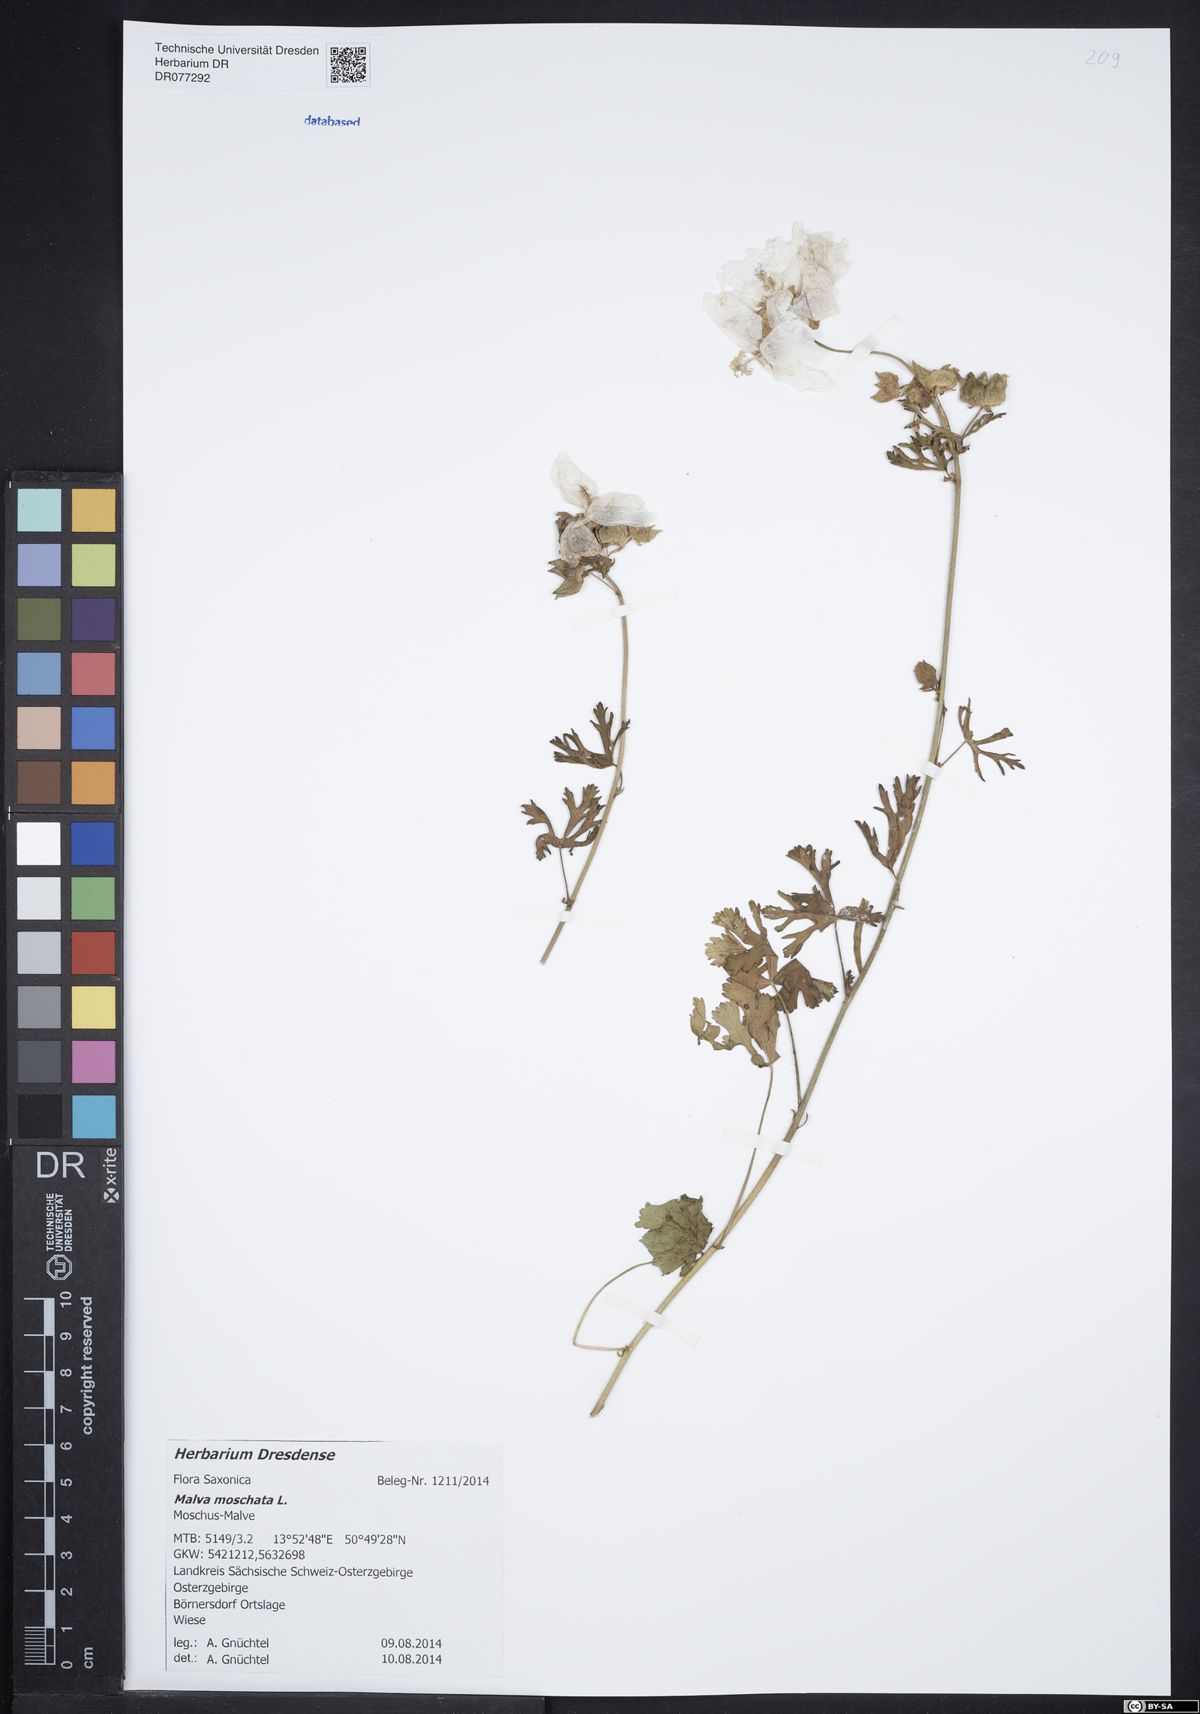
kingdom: Plantae
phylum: Tracheophyta
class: Magnoliopsida
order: Malvales
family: Malvaceae
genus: Malva
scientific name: Malva moschata
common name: Musk mallow
